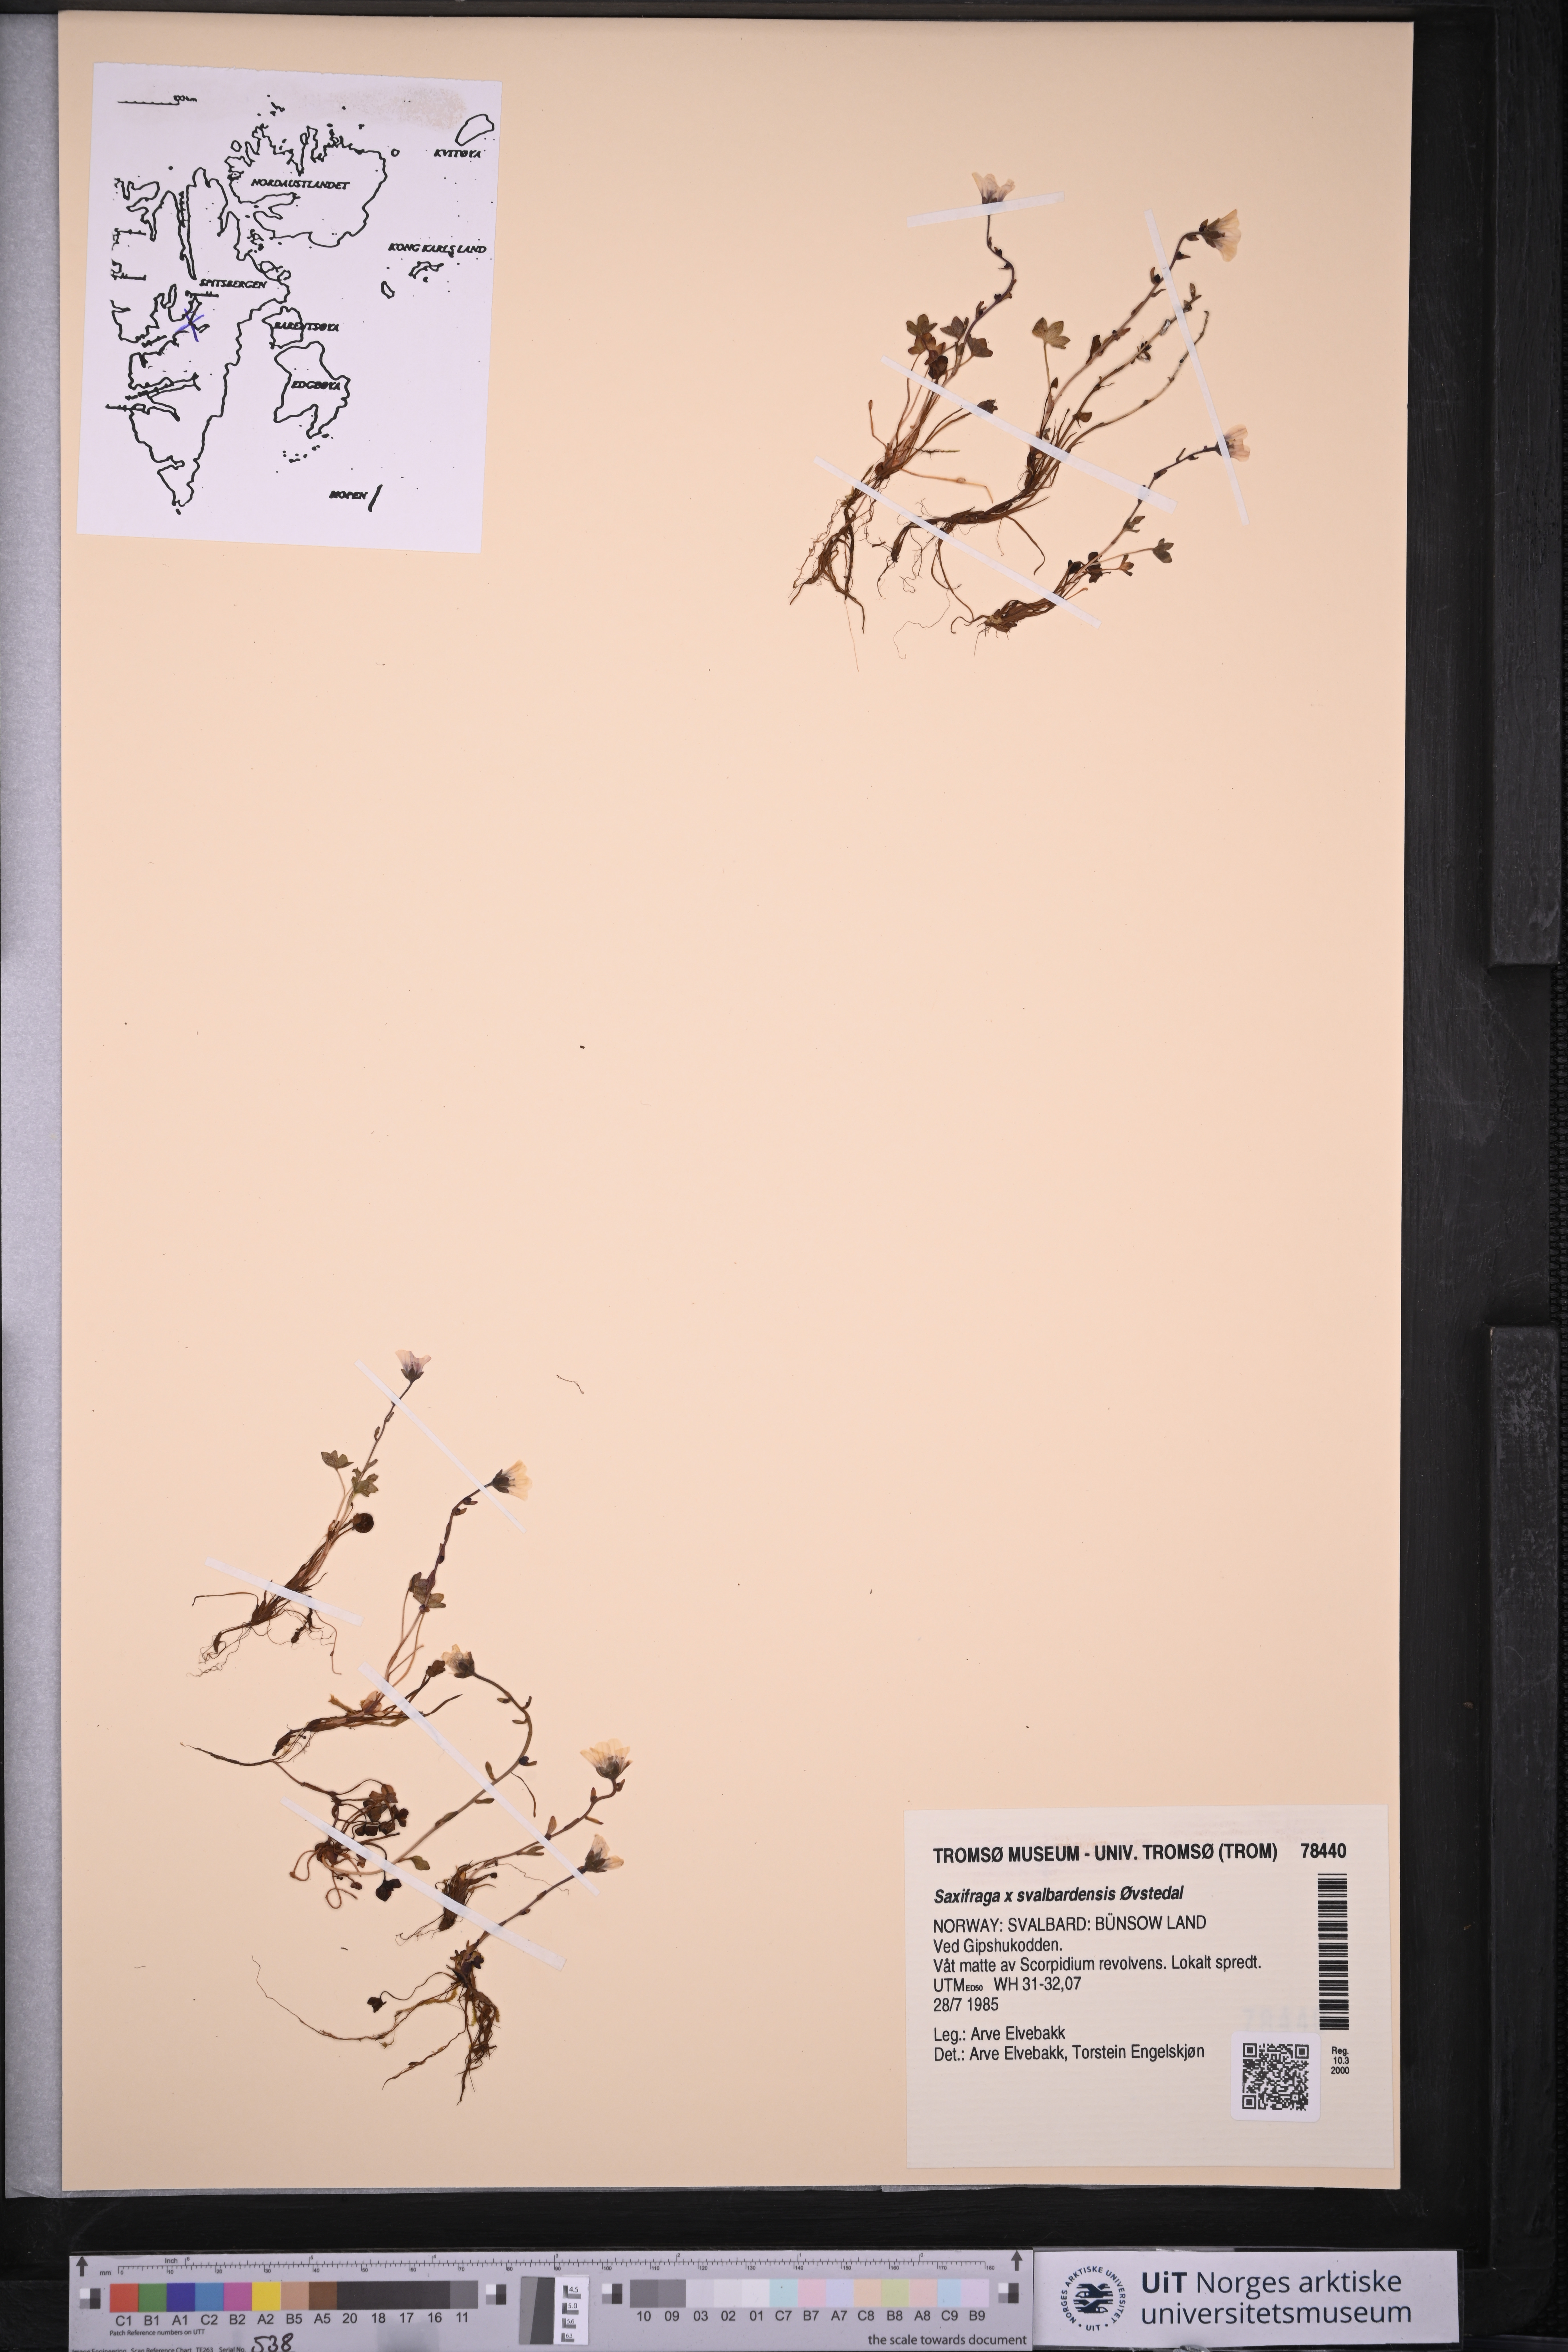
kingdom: Plantae
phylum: Tracheophyta
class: Magnoliopsida
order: Saxifragales
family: Saxifragaceae
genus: Saxifraga
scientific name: Saxifraga svalbardensis
